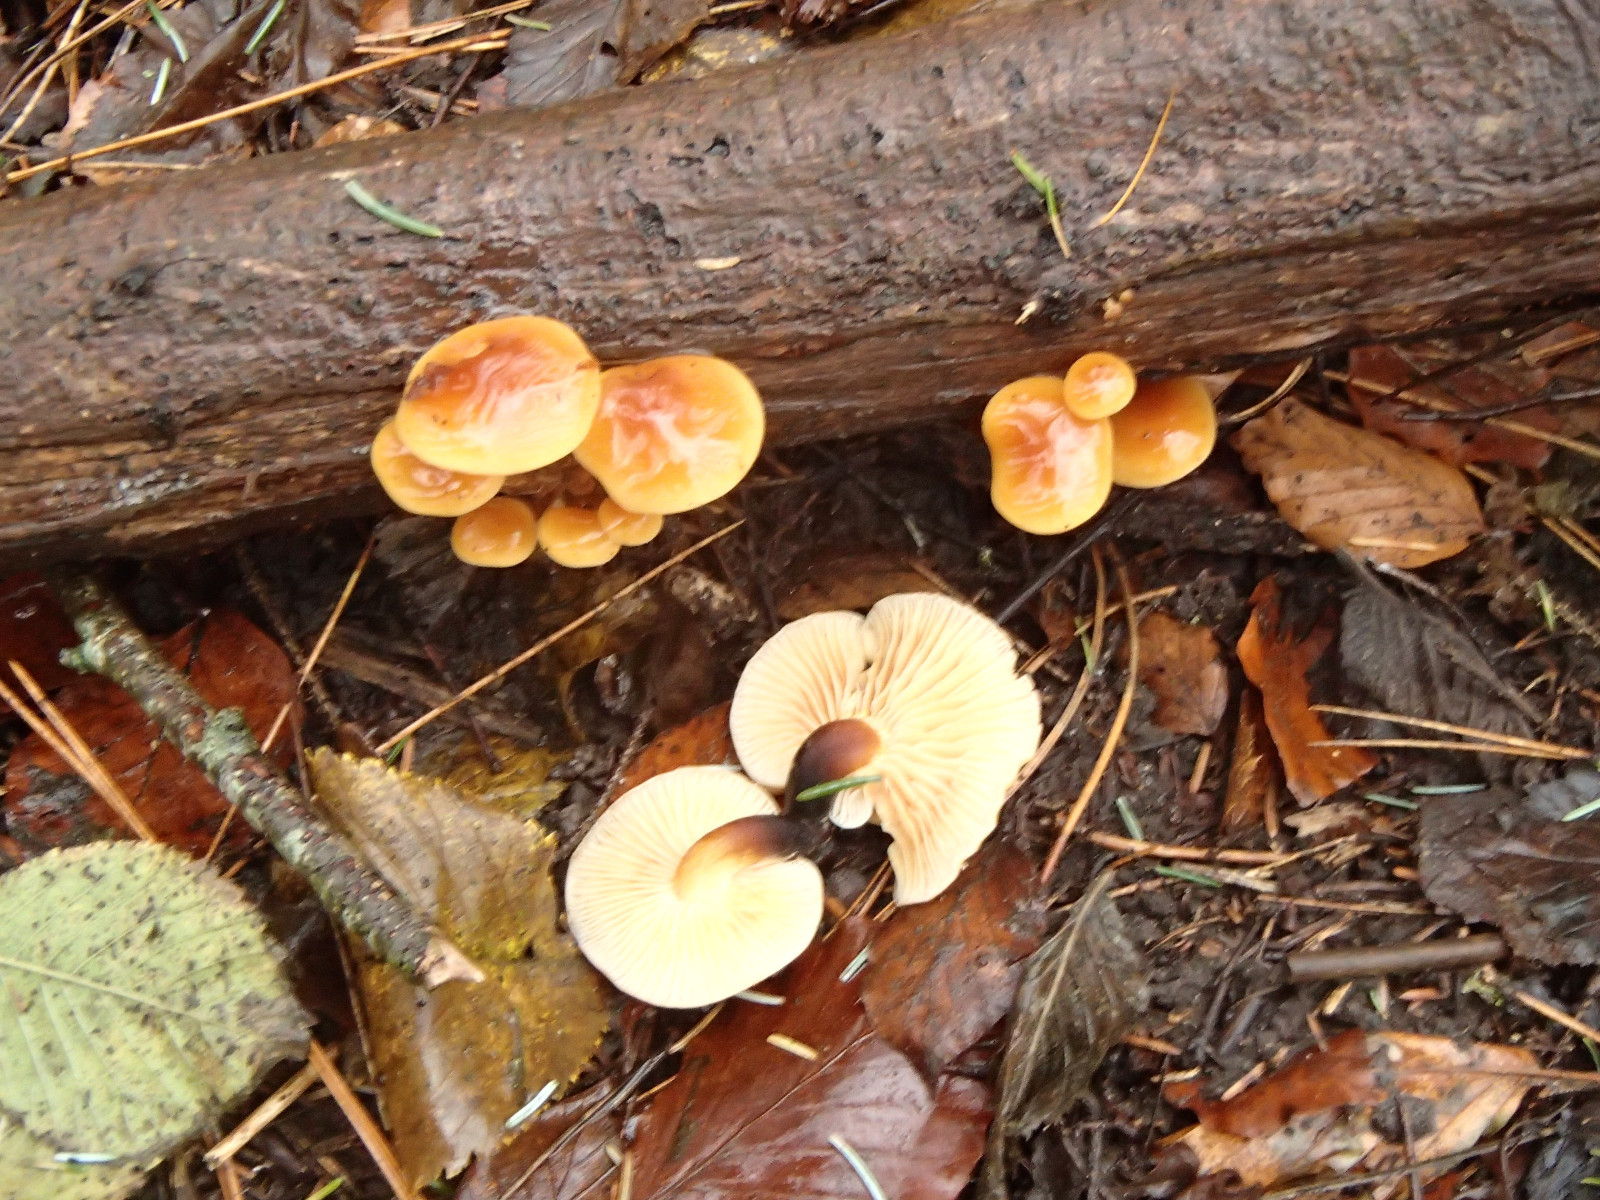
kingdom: Fungi
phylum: Basidiomycota
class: Agaricomycetes
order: Agaricales
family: Physalacriaceae
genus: Flammulina
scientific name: Flammulina
